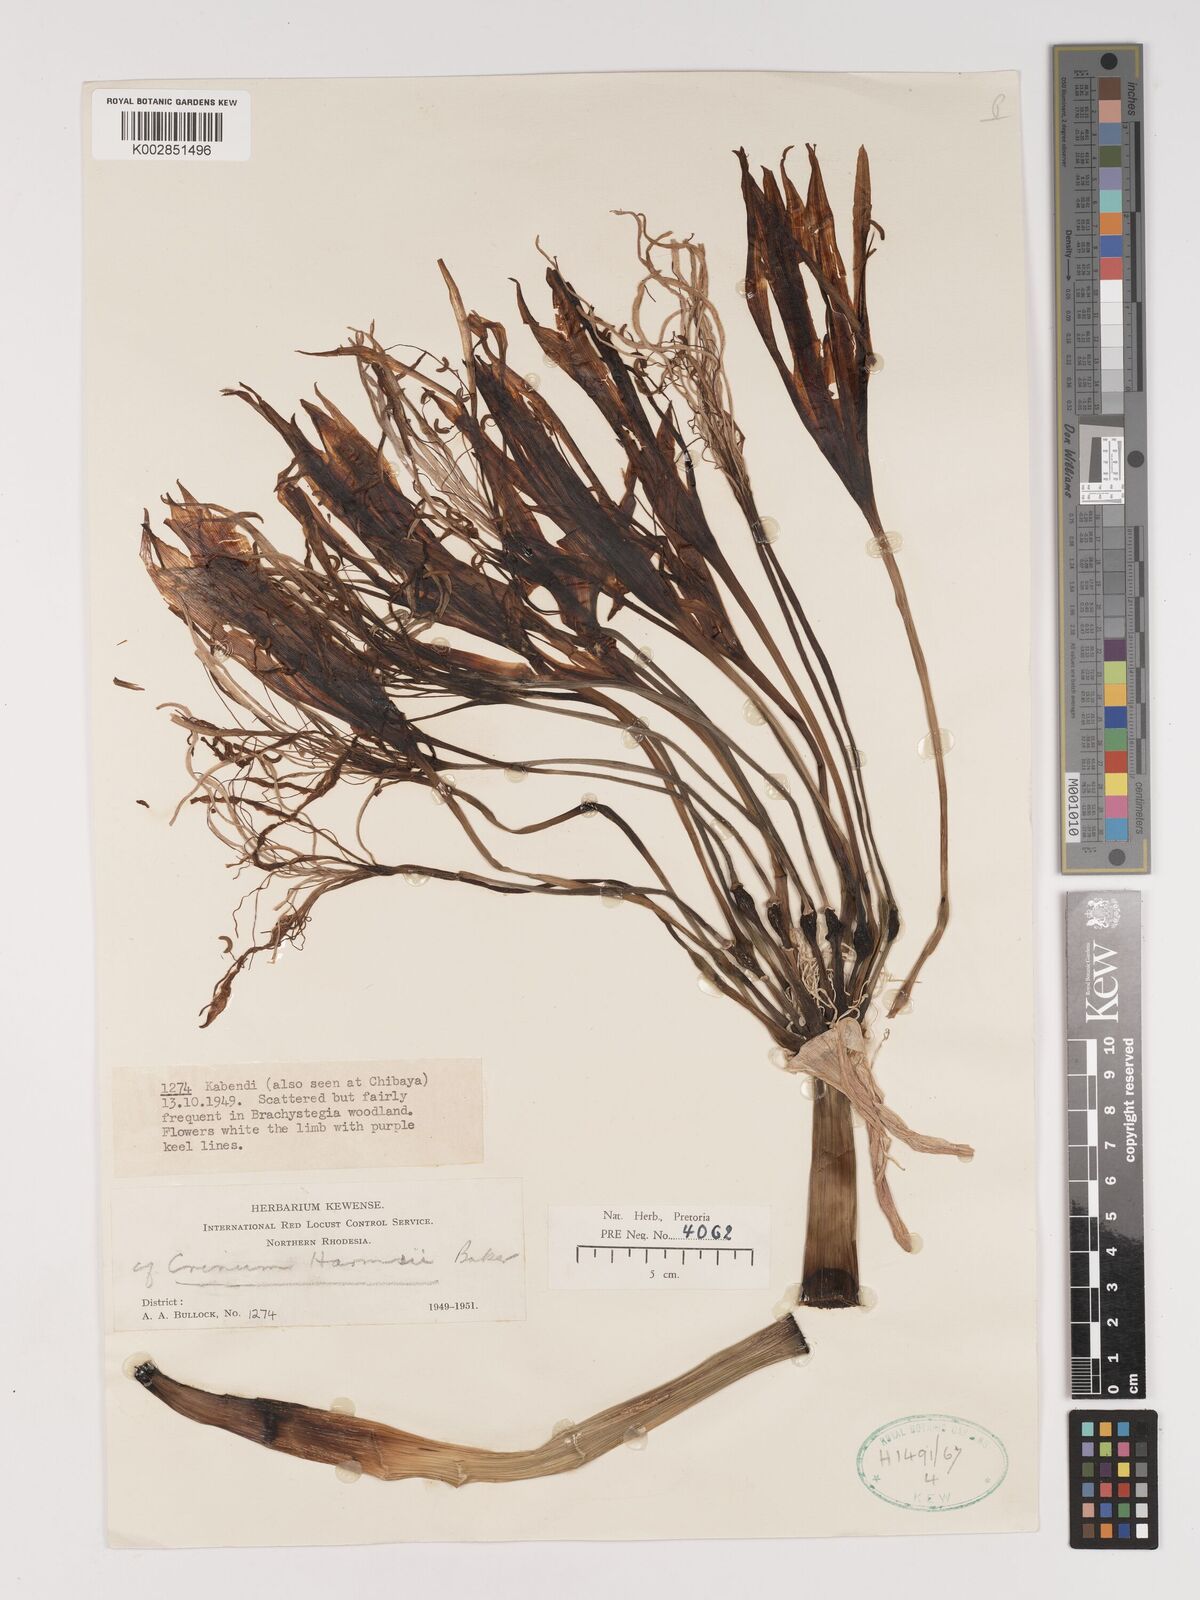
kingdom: Plantae
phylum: Tracheophyta
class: Liliopsida
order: Asparagales
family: Amaryllidaceae
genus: Crinum
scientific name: Crinum stuhlmannii
